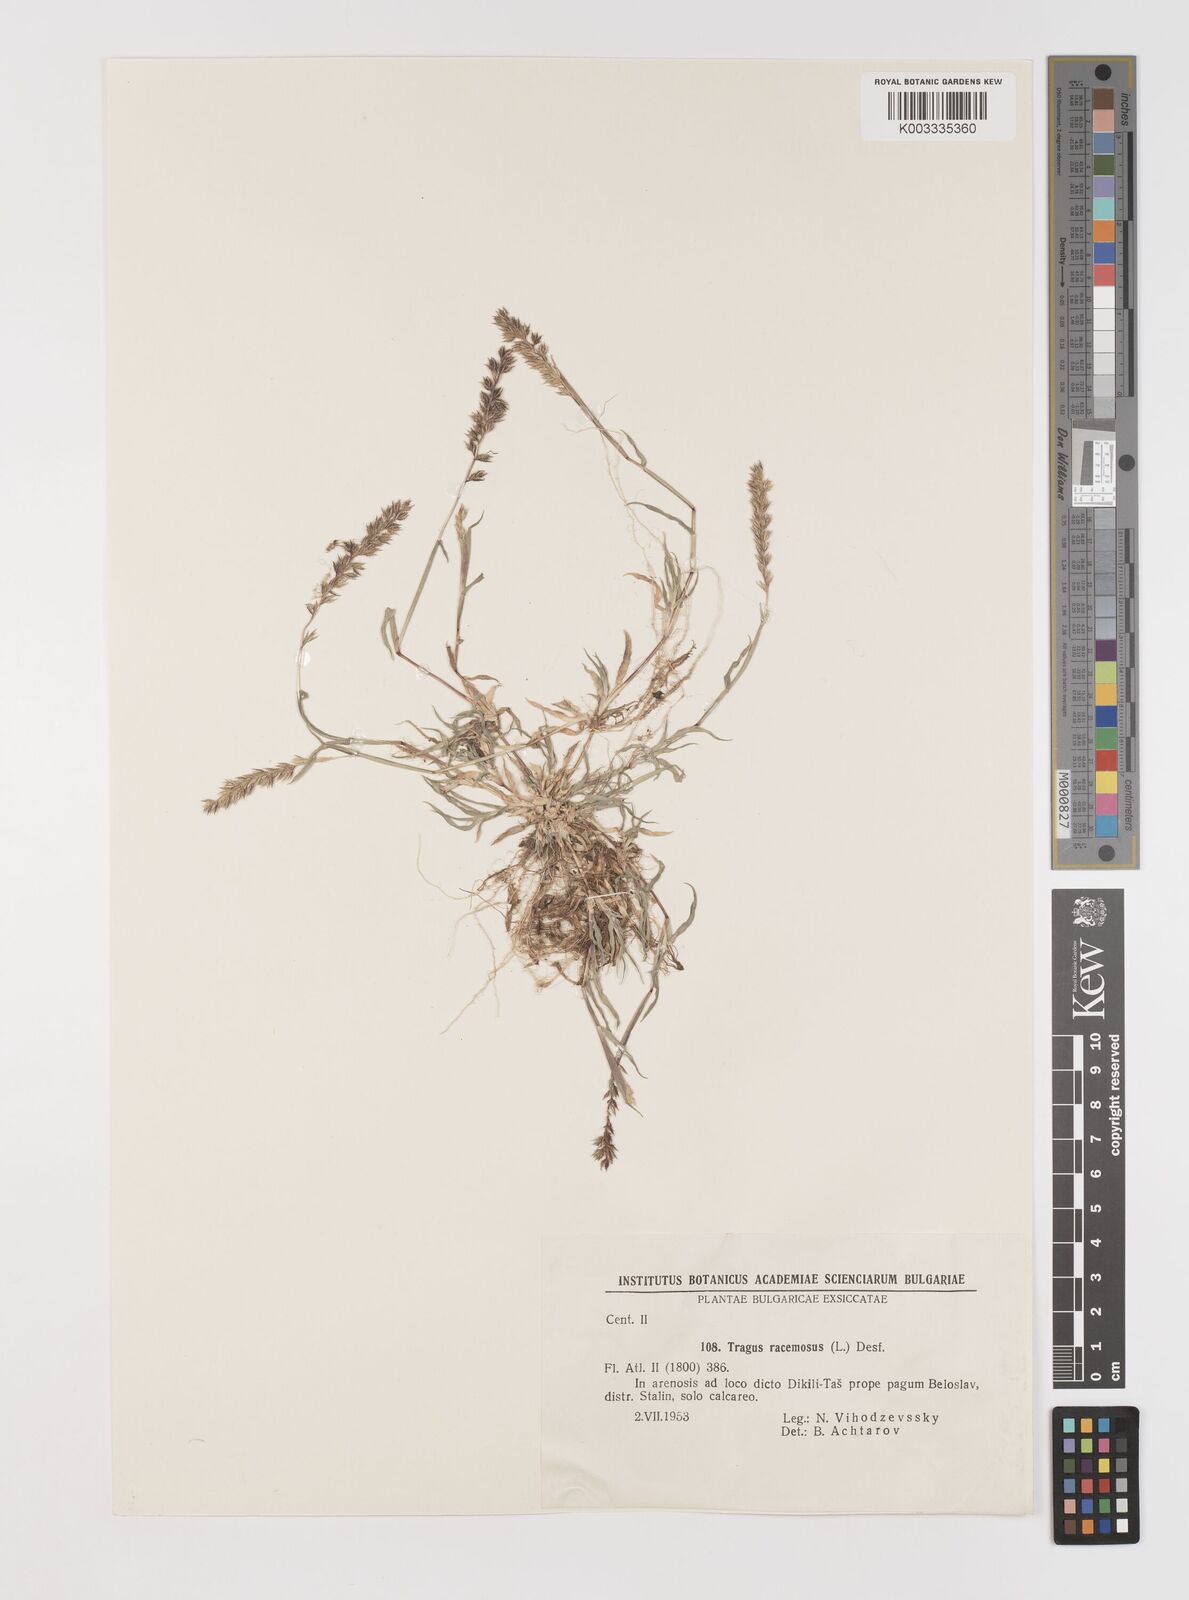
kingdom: Plantae
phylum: Tracheophyta
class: Liliopsida
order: Poales
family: Poaceae
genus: Tragus
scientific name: Tragus racemosus
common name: European bur-grass
